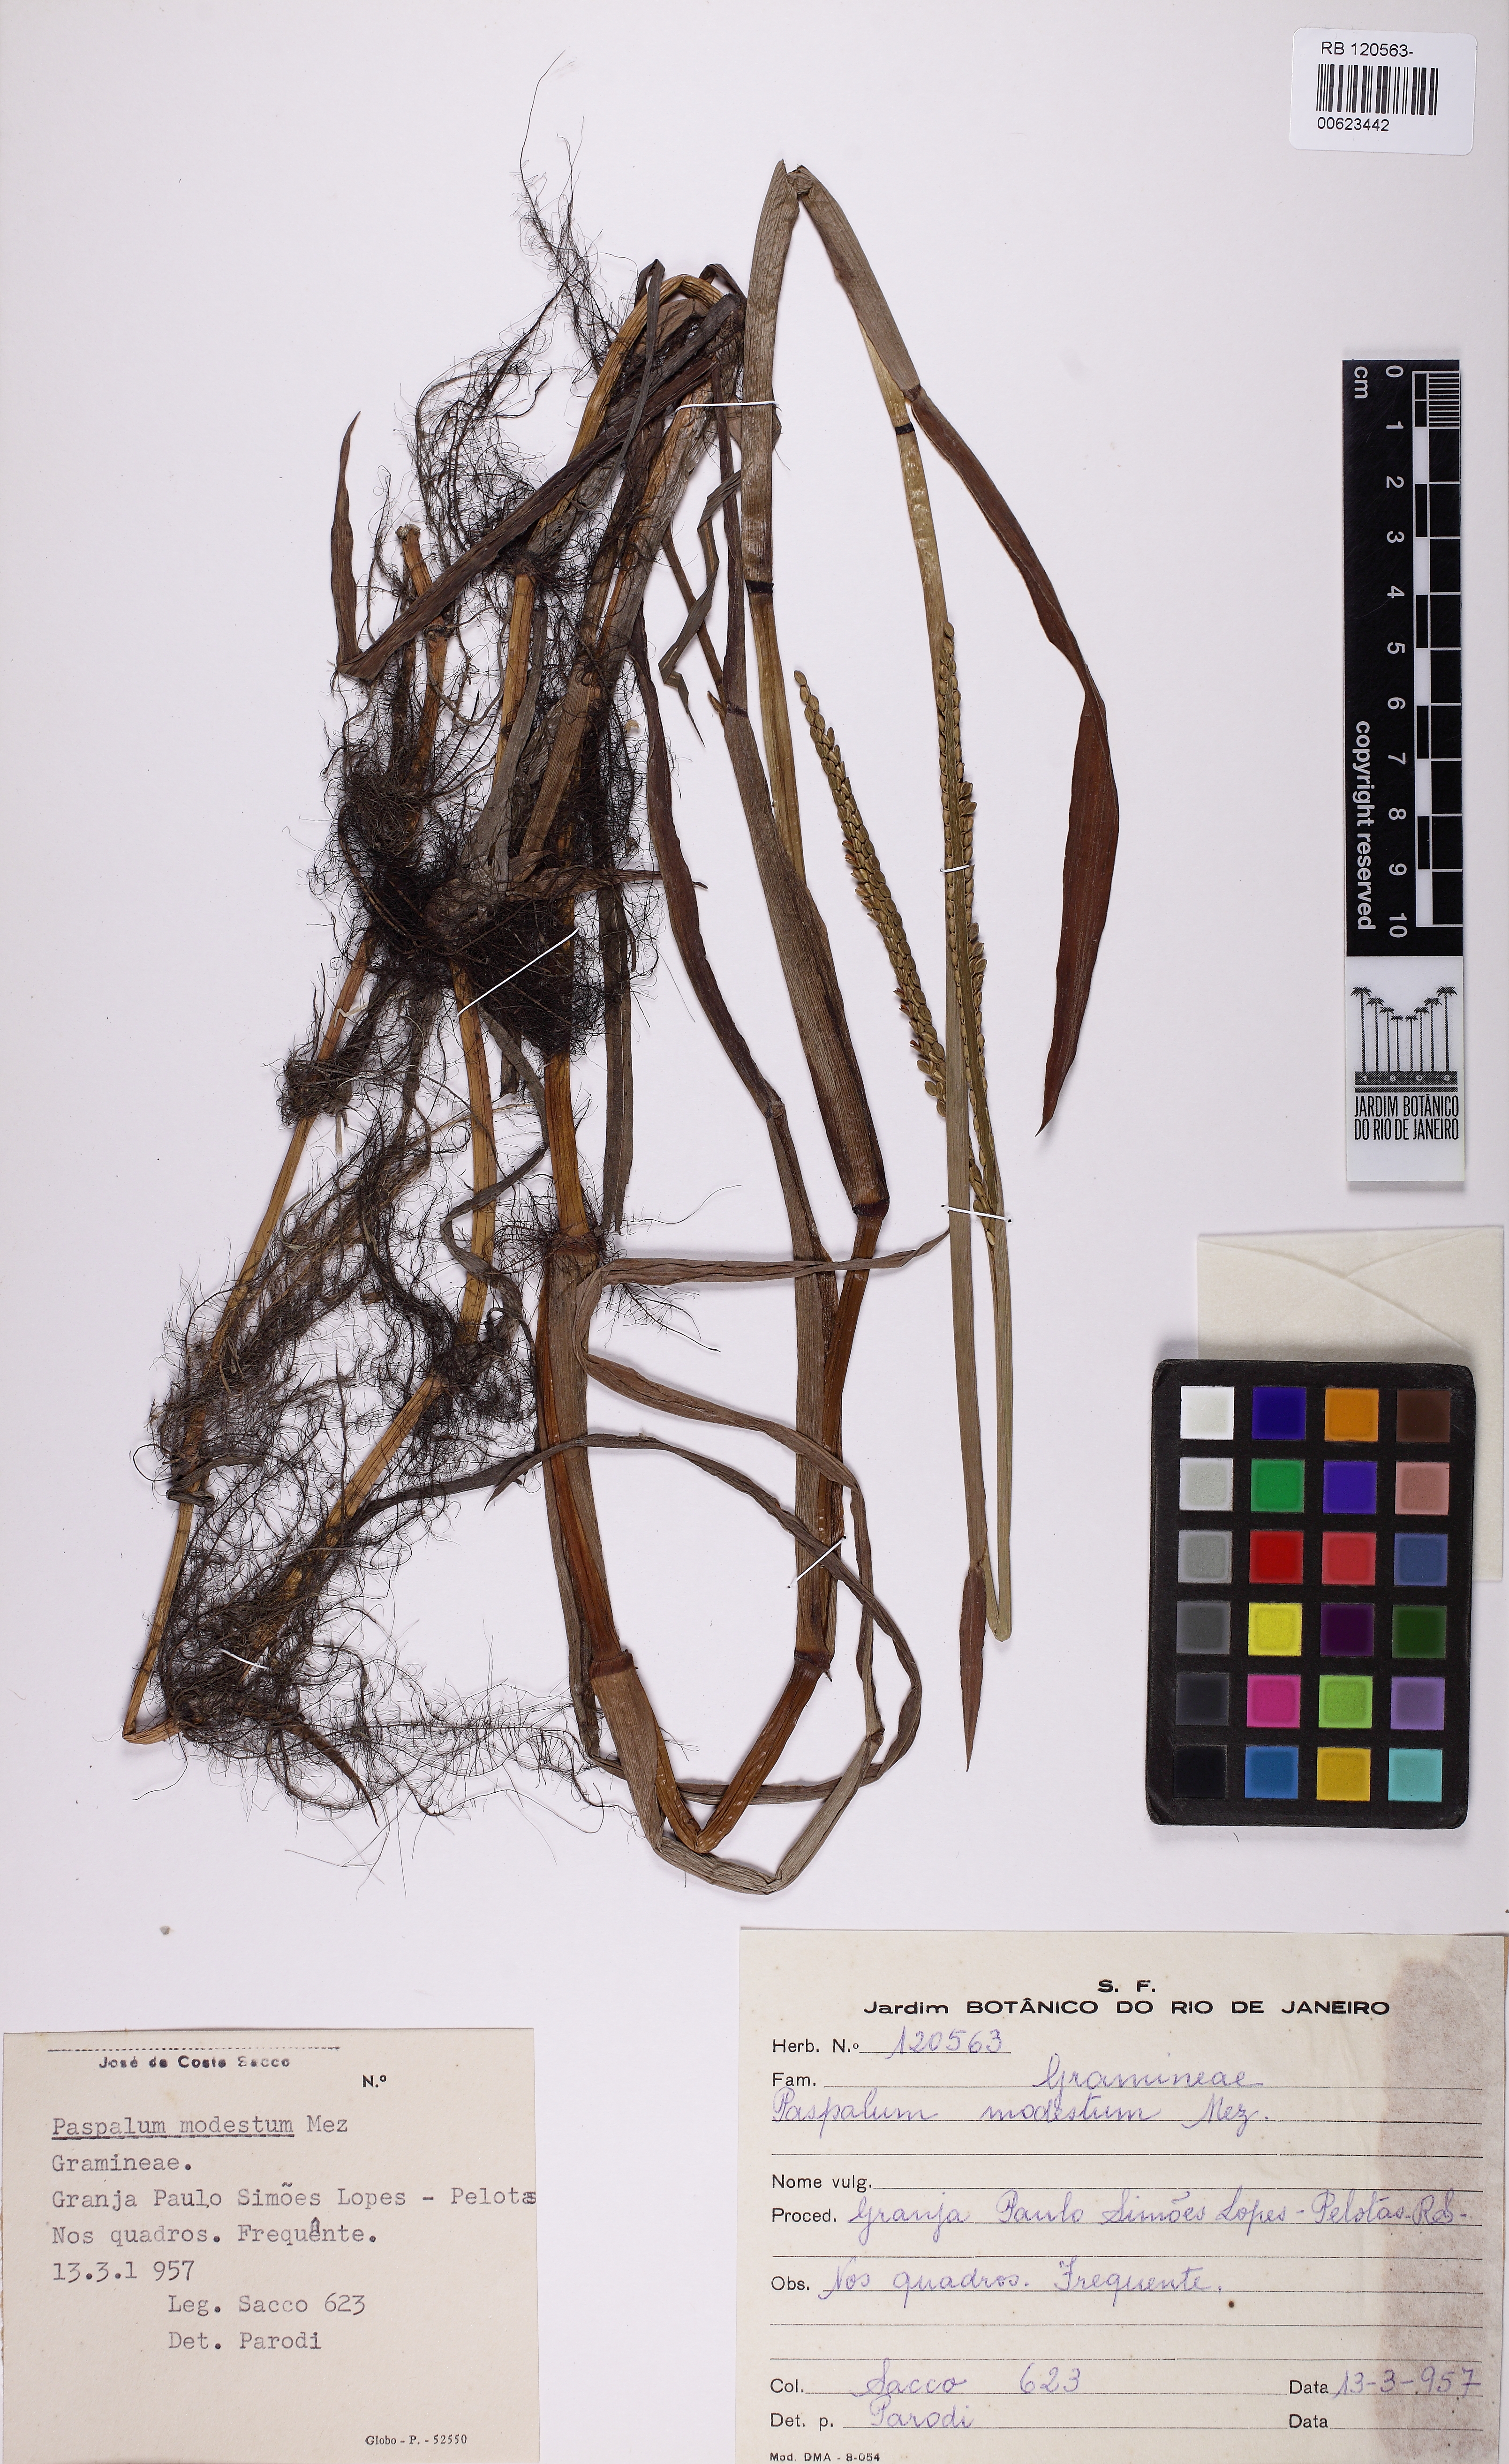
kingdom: Plantae
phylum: Tracheophyta
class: Liliopsida
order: Poales
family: Poaceae
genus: Paspalum
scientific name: Paspalum modestum
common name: Water paspalum
